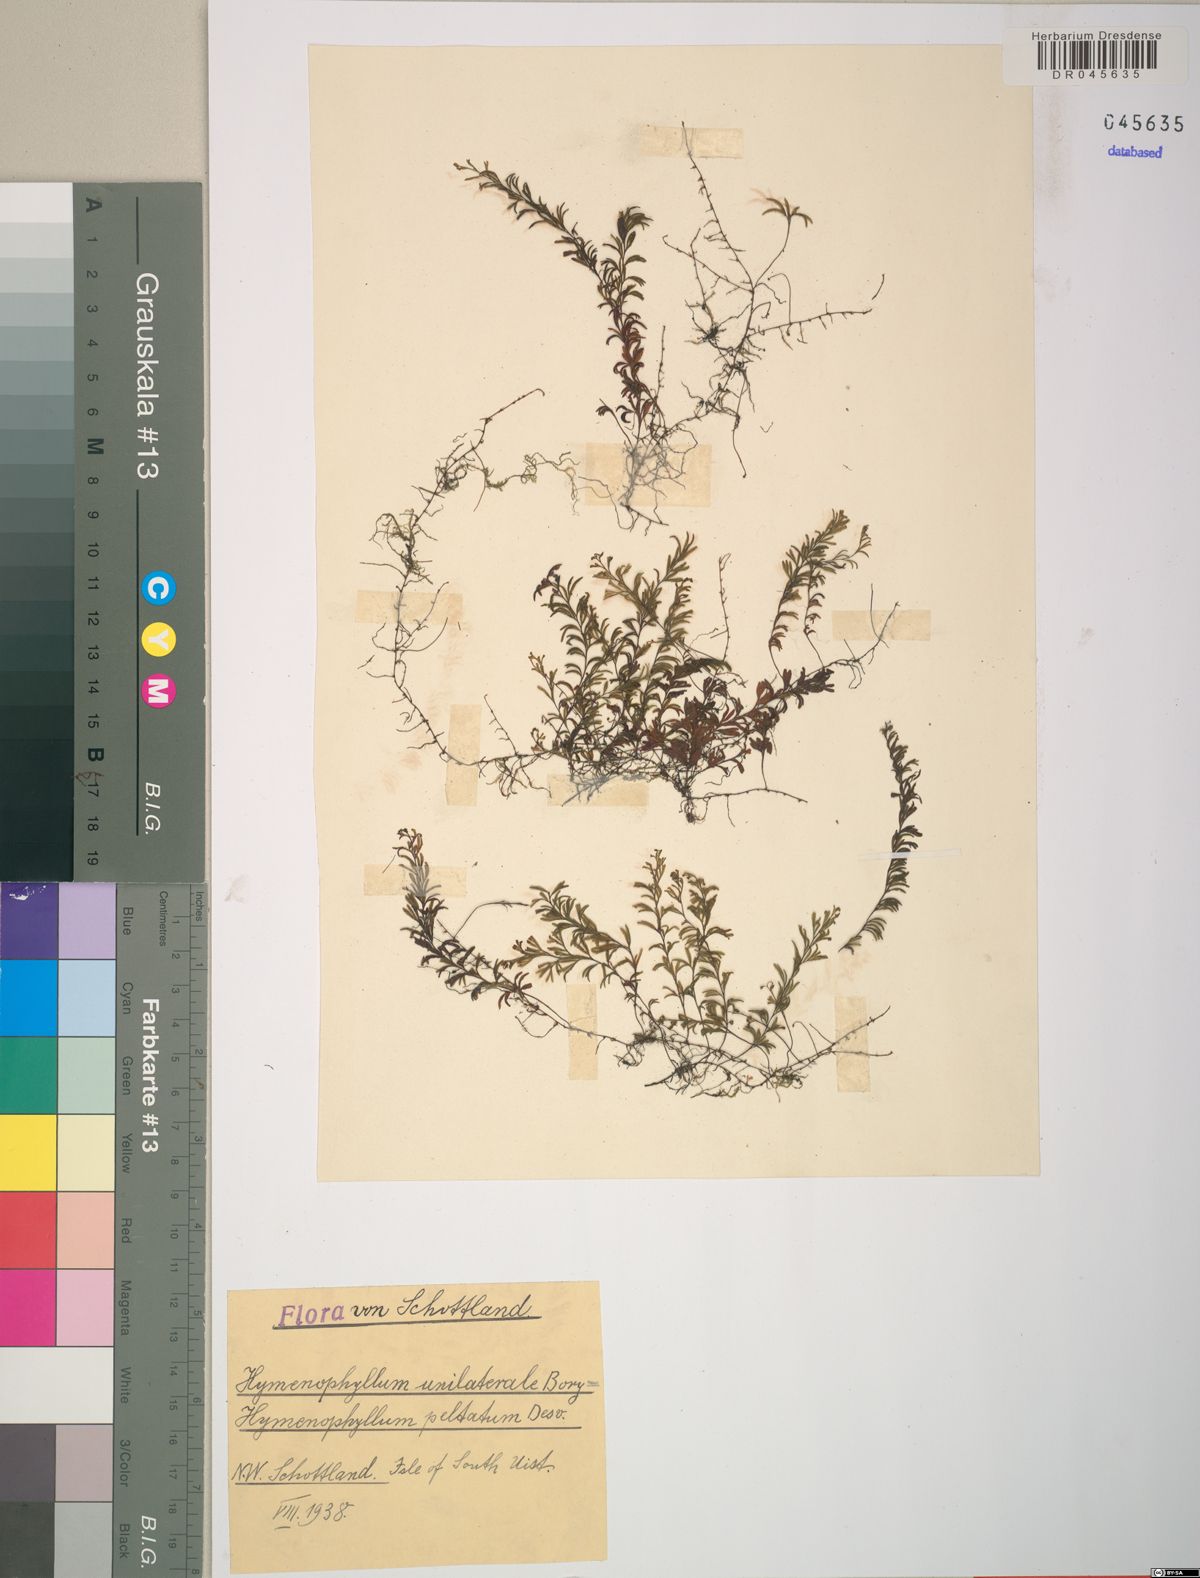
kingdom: Plantae
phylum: Tracheophyta
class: Polypodiopsida
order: Hymenophyllales
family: Hymenophyllaceae
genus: Hymenophyllum
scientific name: Hymenophyllum peltatum
